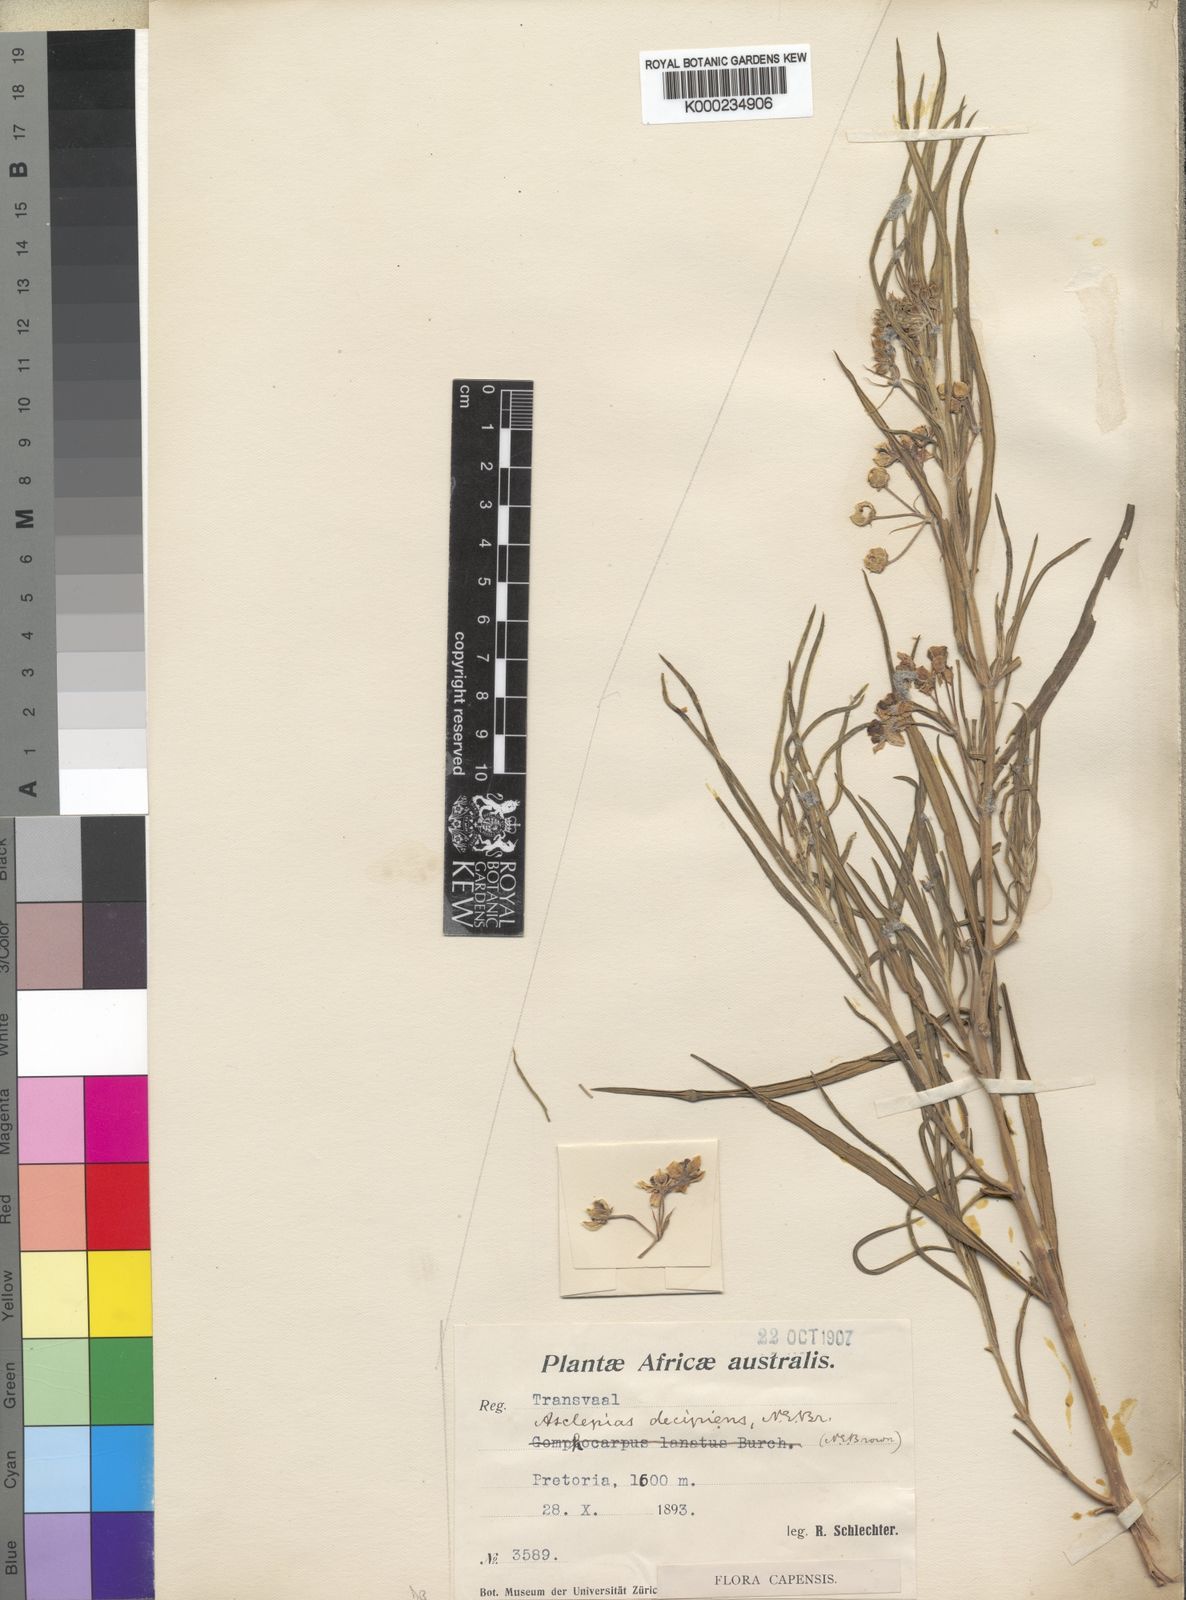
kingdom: Plantae
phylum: Tracheophyta
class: Magnoliopsida
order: Gentianales
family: Apocynaceae
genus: Gomphocarpus
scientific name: Gomphocarpus fruticosus
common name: Milkweed
